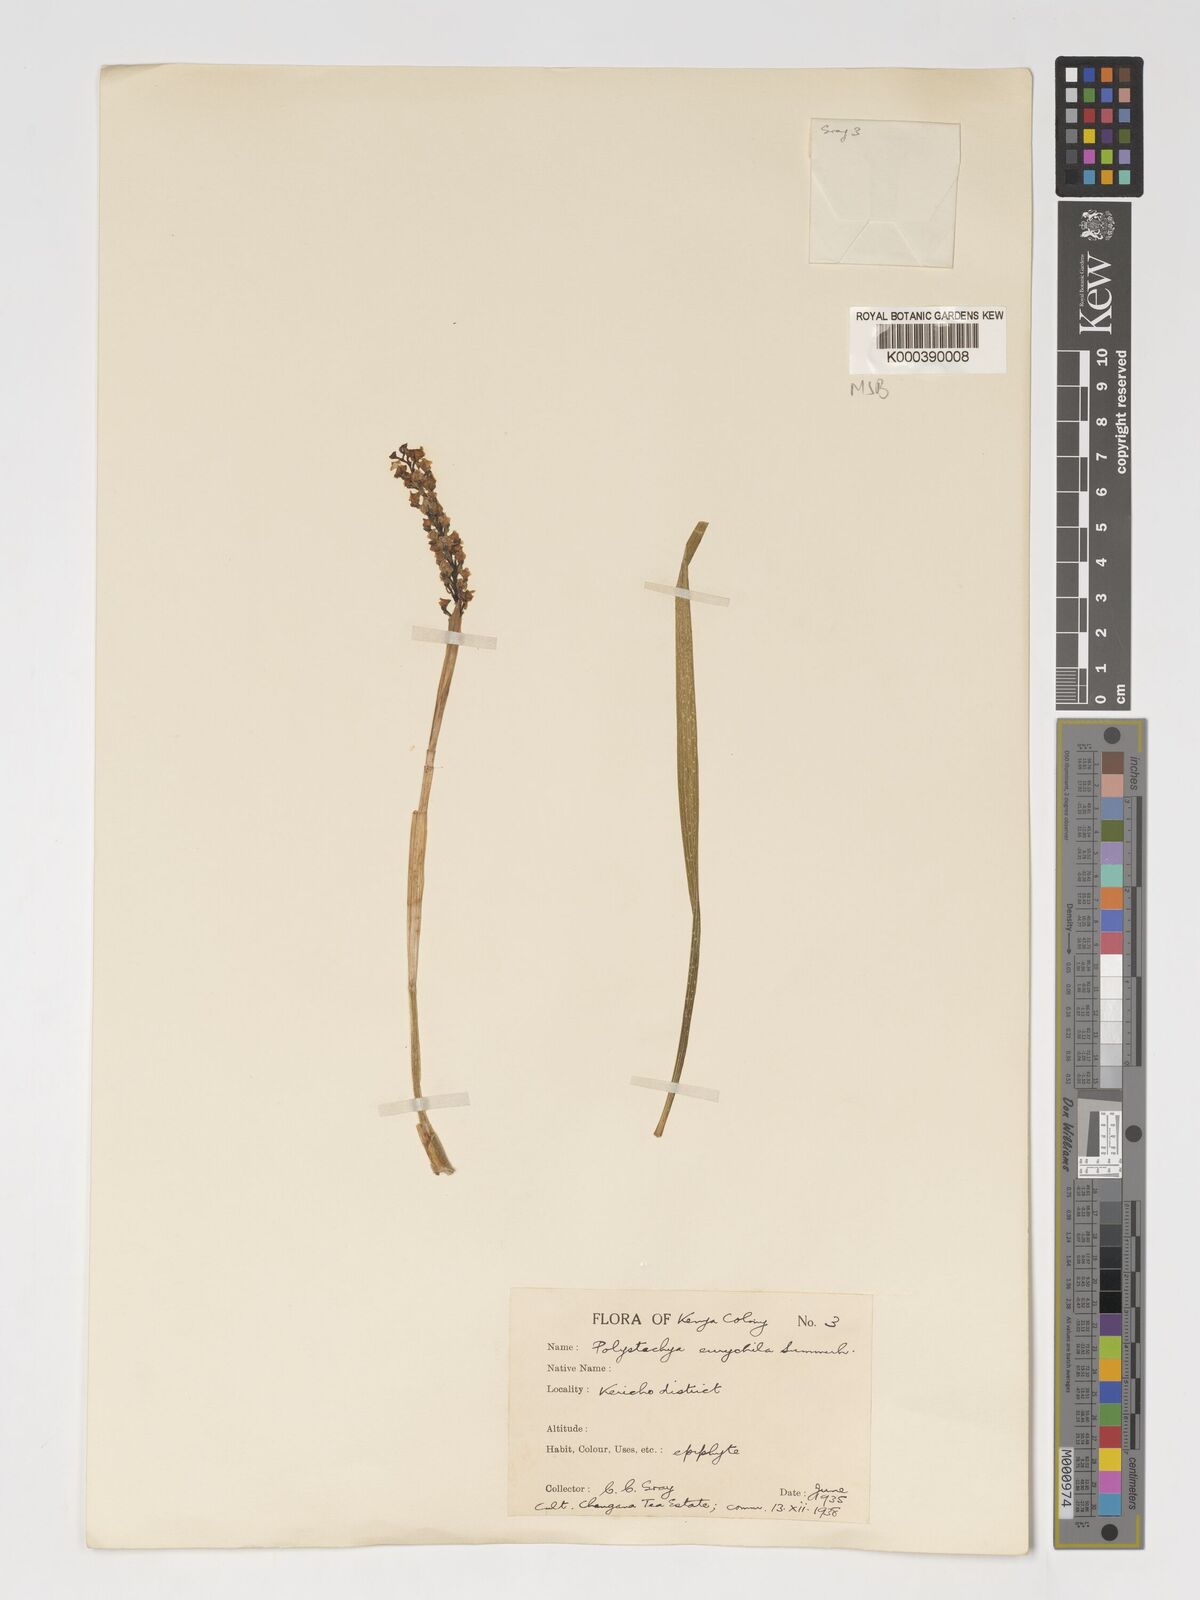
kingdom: Plantae
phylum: Tracheophyta
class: Liliopsida
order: Asparagales
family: Orchidaceae
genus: Polystachya
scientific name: Polystachya eurychila
